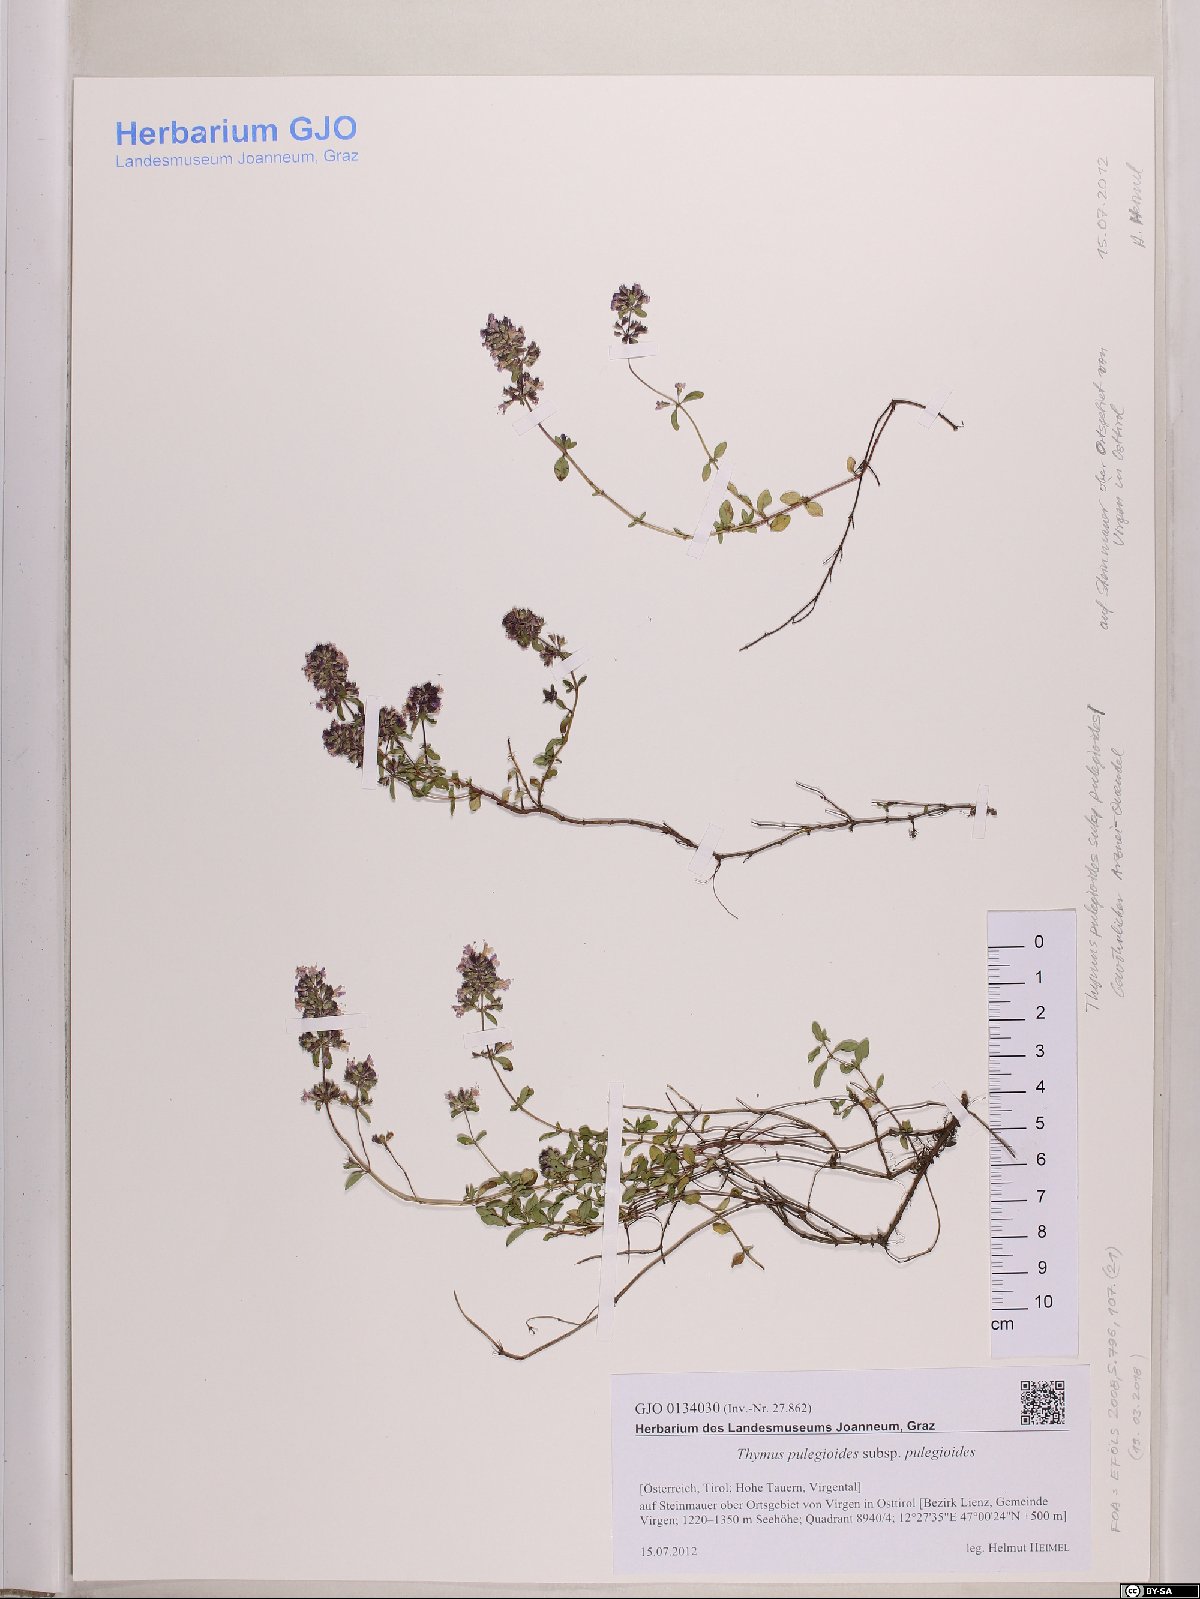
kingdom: Plantae
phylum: Tracheophyta
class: Magnoliopsida
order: Lamiales
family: Lamiaceae
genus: Thymus
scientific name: Thymus pulegioides
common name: Large thyme
